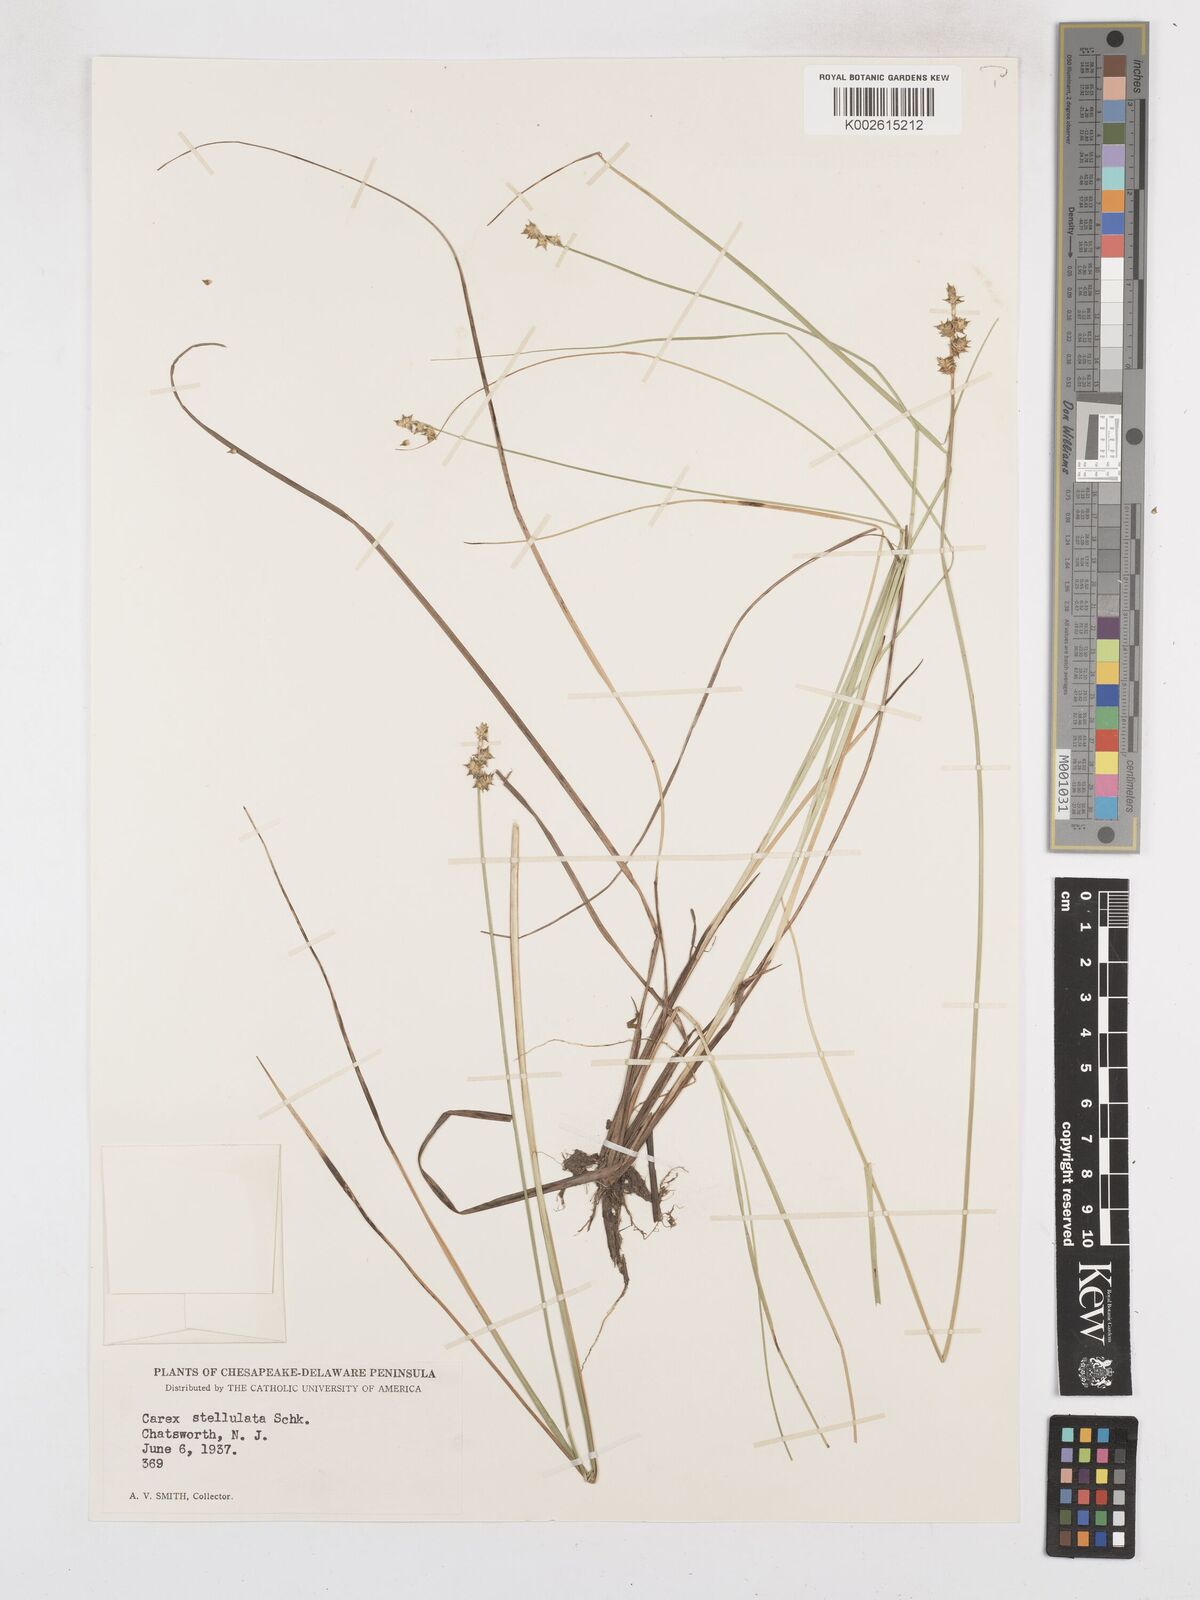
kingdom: Plantae
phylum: Tracheophyta
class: Liliopsida
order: Poales
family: Cyperaceae
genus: Carex
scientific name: Carex echinata
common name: Star sedge
